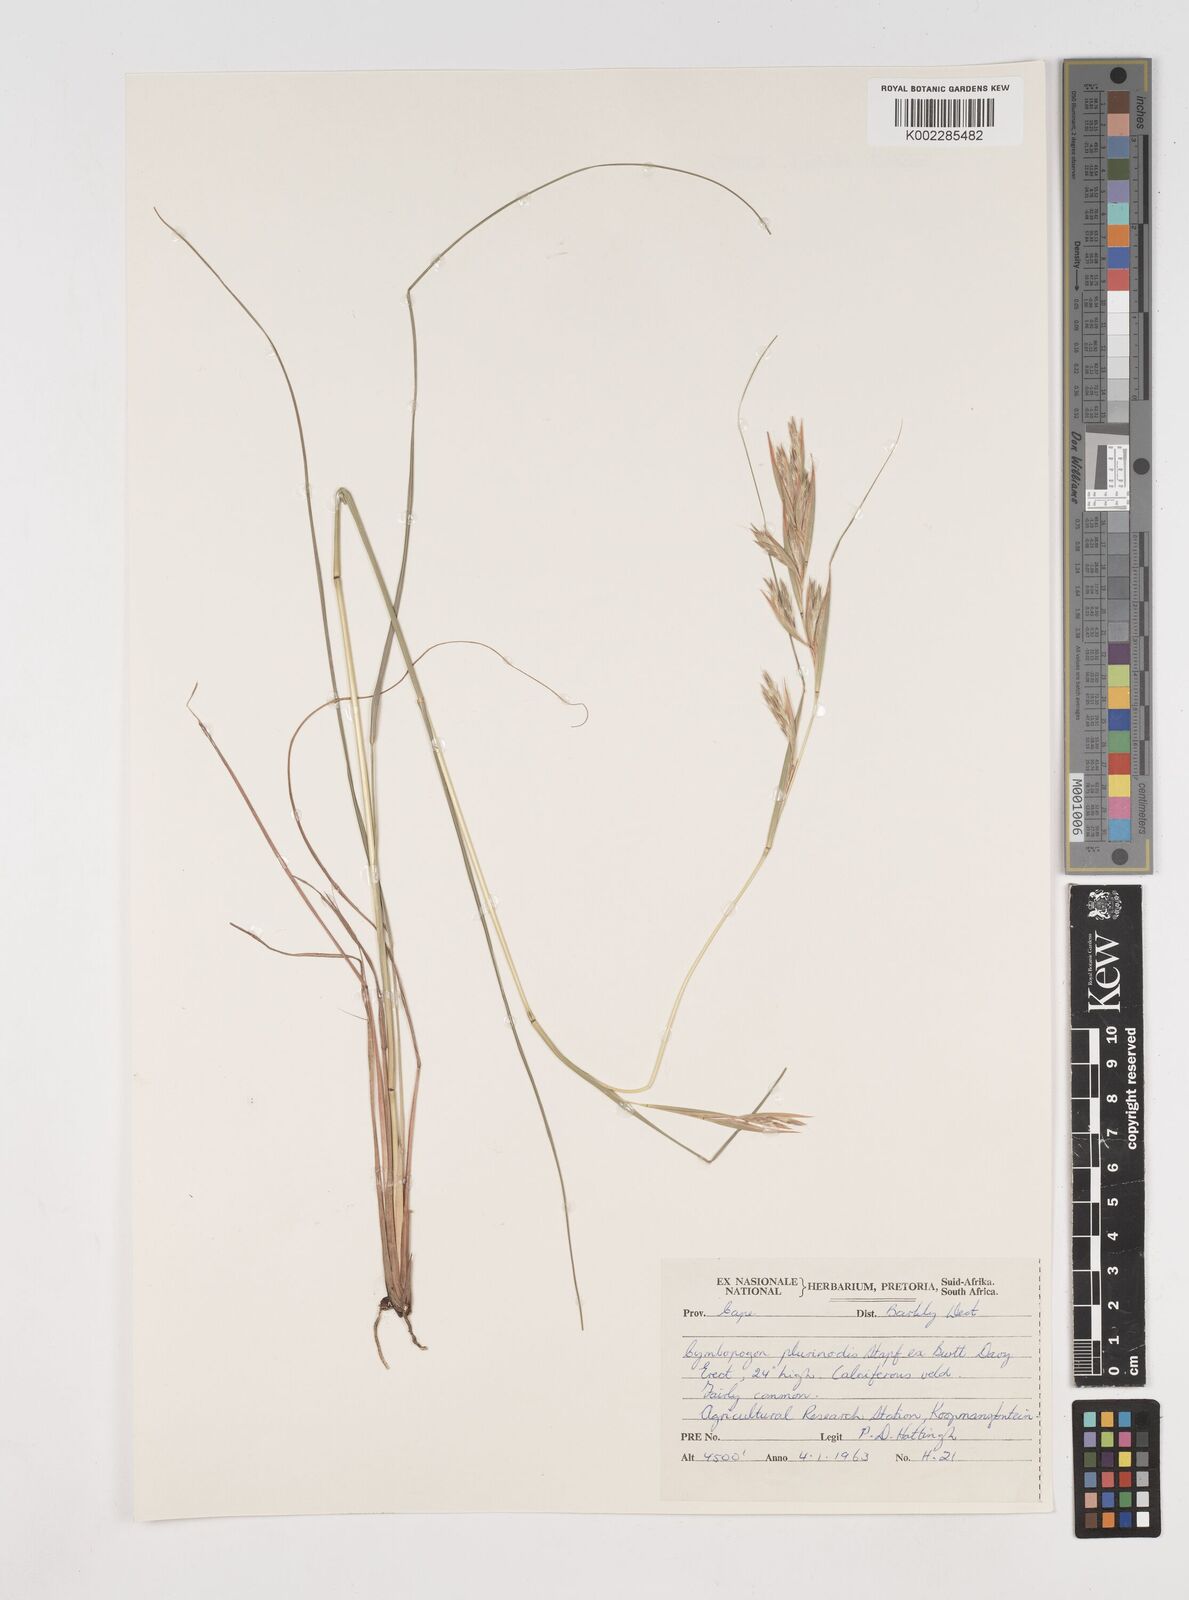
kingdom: Plantae
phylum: Tracheophyta
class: Liliopsida
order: Poales
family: Poaceae
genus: Cymbopogon
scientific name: Cymbopogon pospischilii
